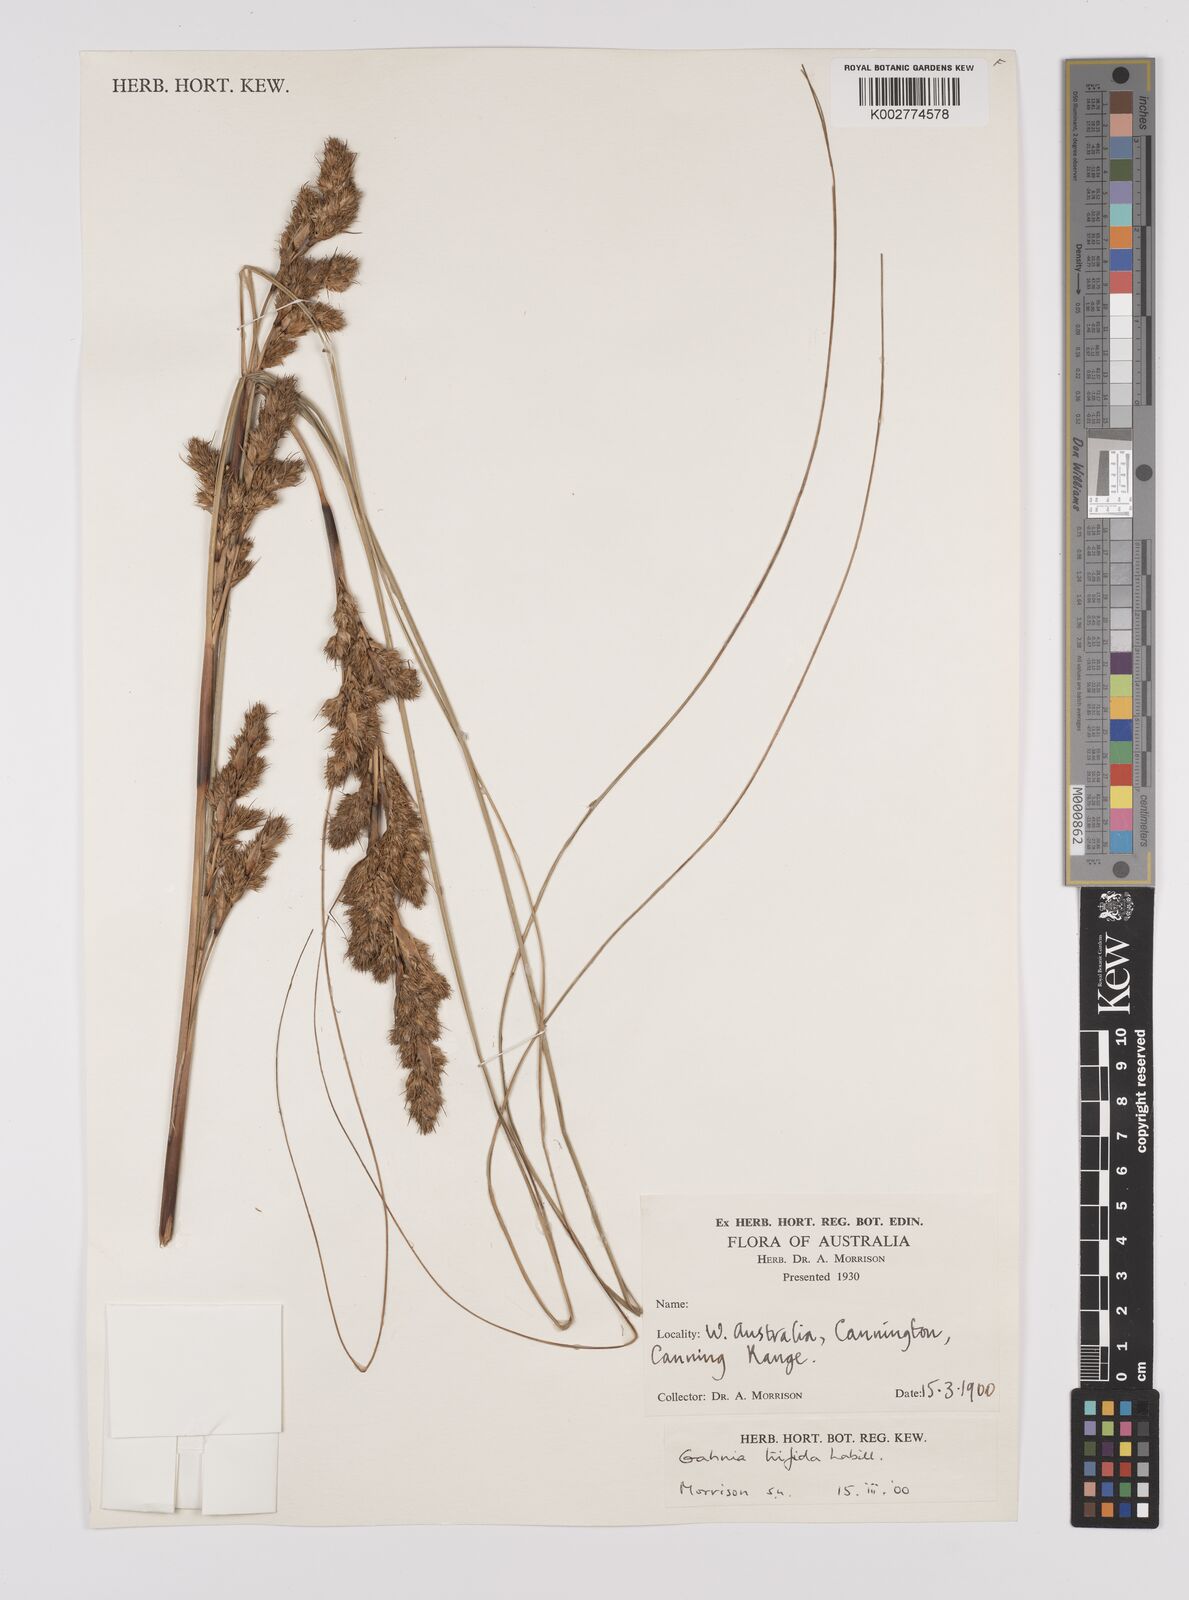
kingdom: Plantae
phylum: Tracheophyta
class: Liliopsida
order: Poales
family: Cyperaceae
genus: Gahnia
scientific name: Gahnia trifida
